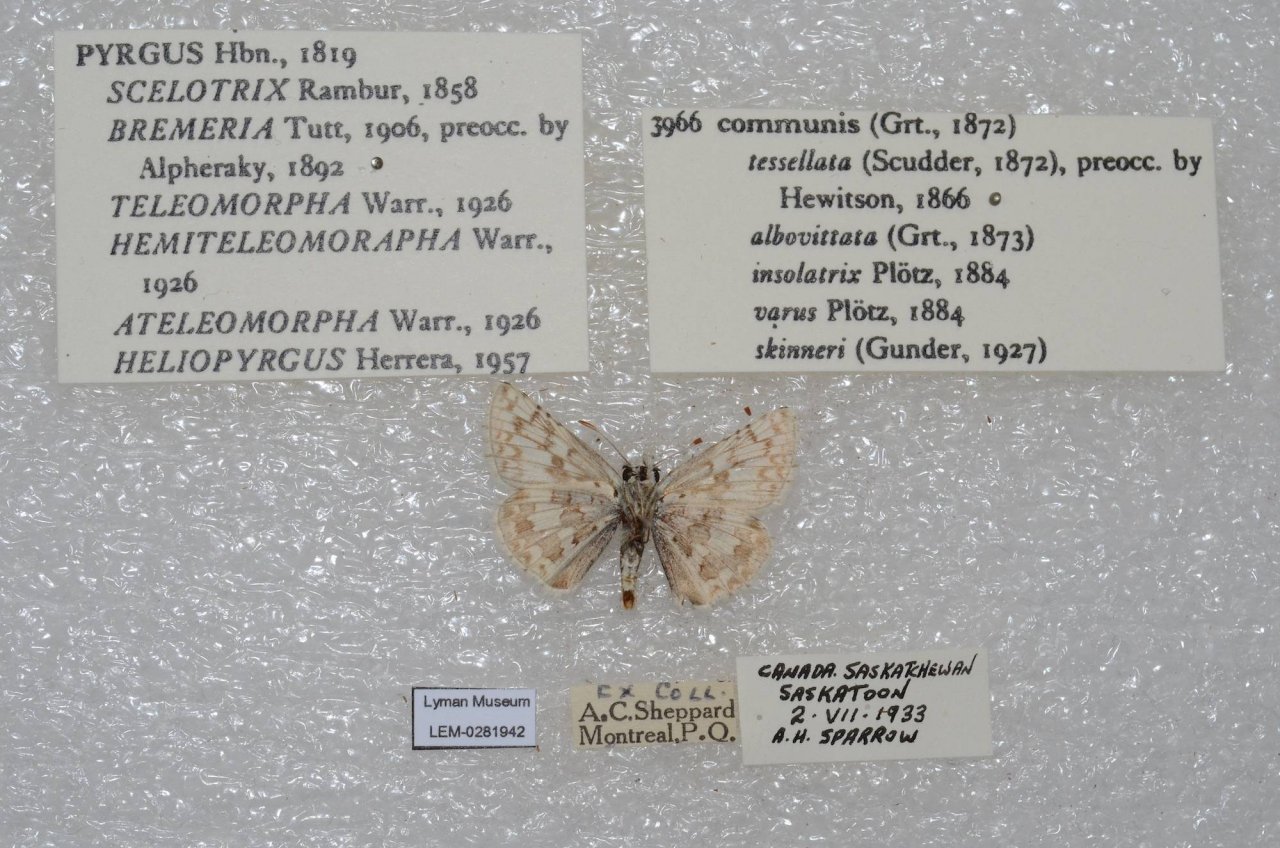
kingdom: Animalia
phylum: Arthropoda
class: Insecta
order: Lepidoptera
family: Hesperiidae
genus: Pyrgus
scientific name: Pyrgus communis
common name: Common Checkered-Skipper
